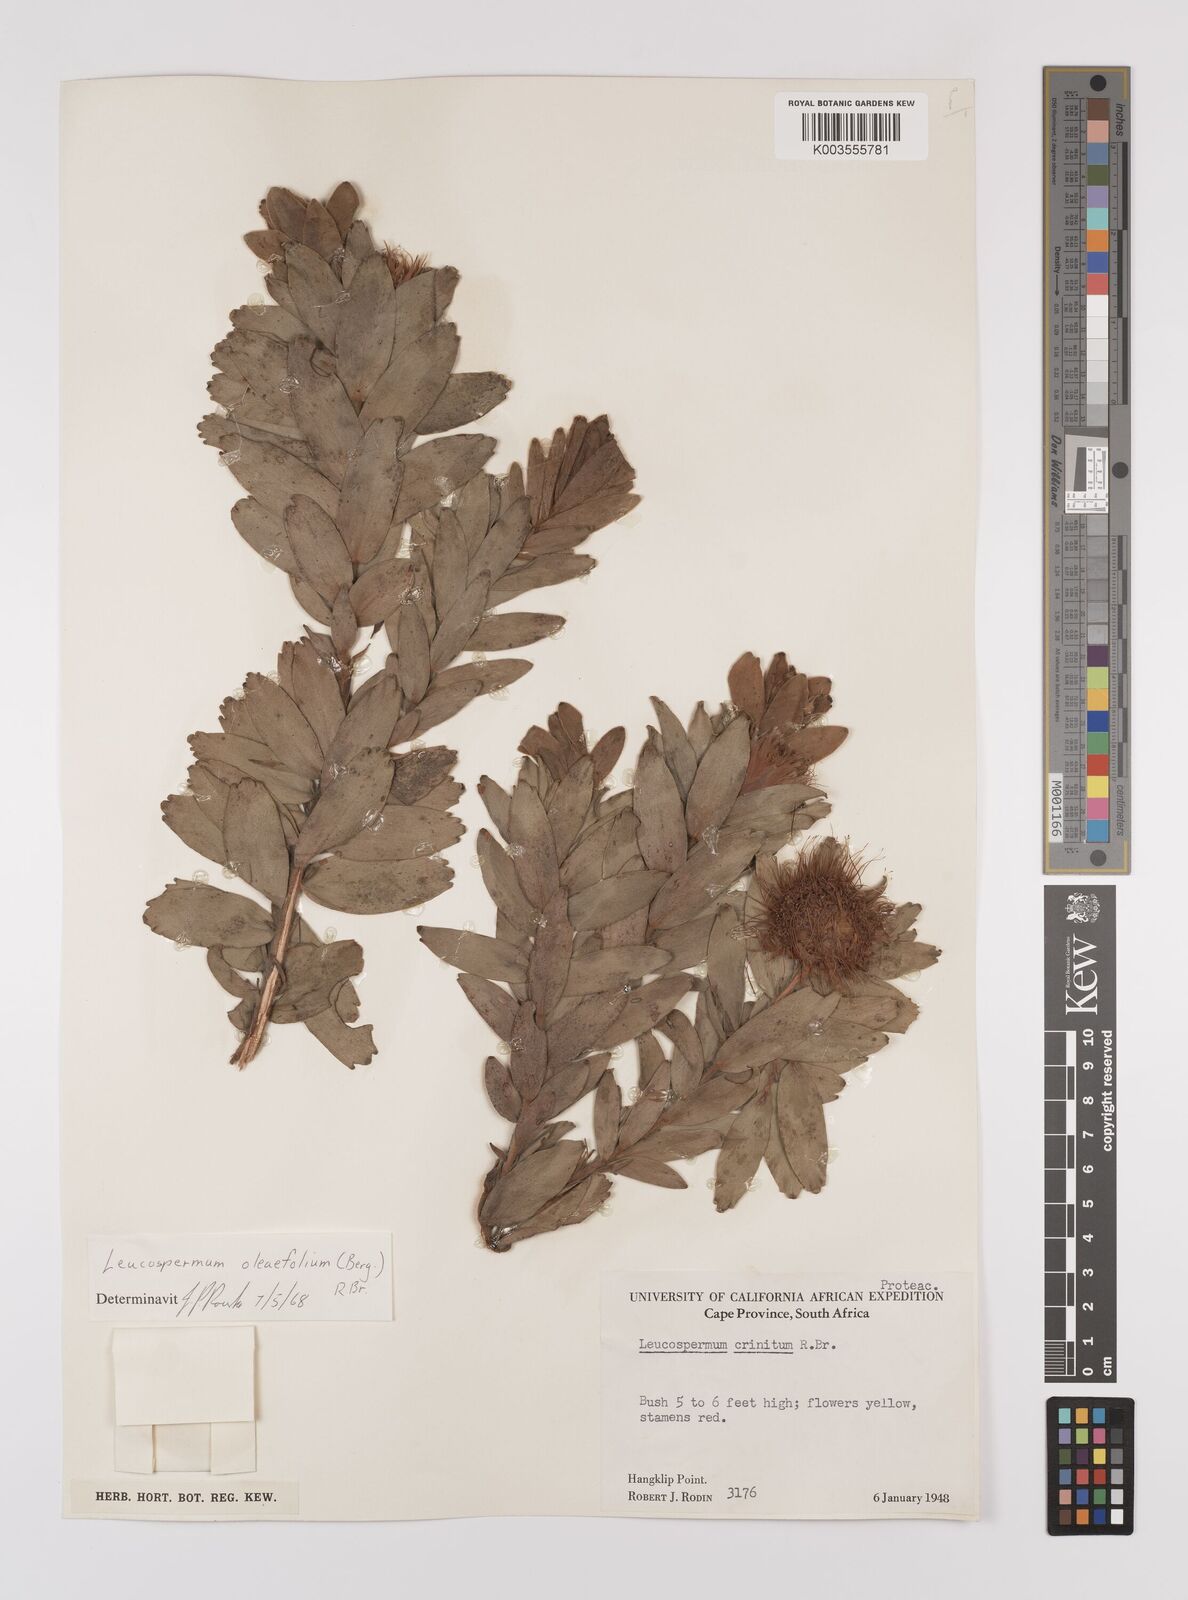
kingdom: Plantae
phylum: Tracheophyta
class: Magnoliopsida
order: Proteales
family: Proteaceae
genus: Leucospermum
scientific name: Leucospermum oleifolium
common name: Matches
